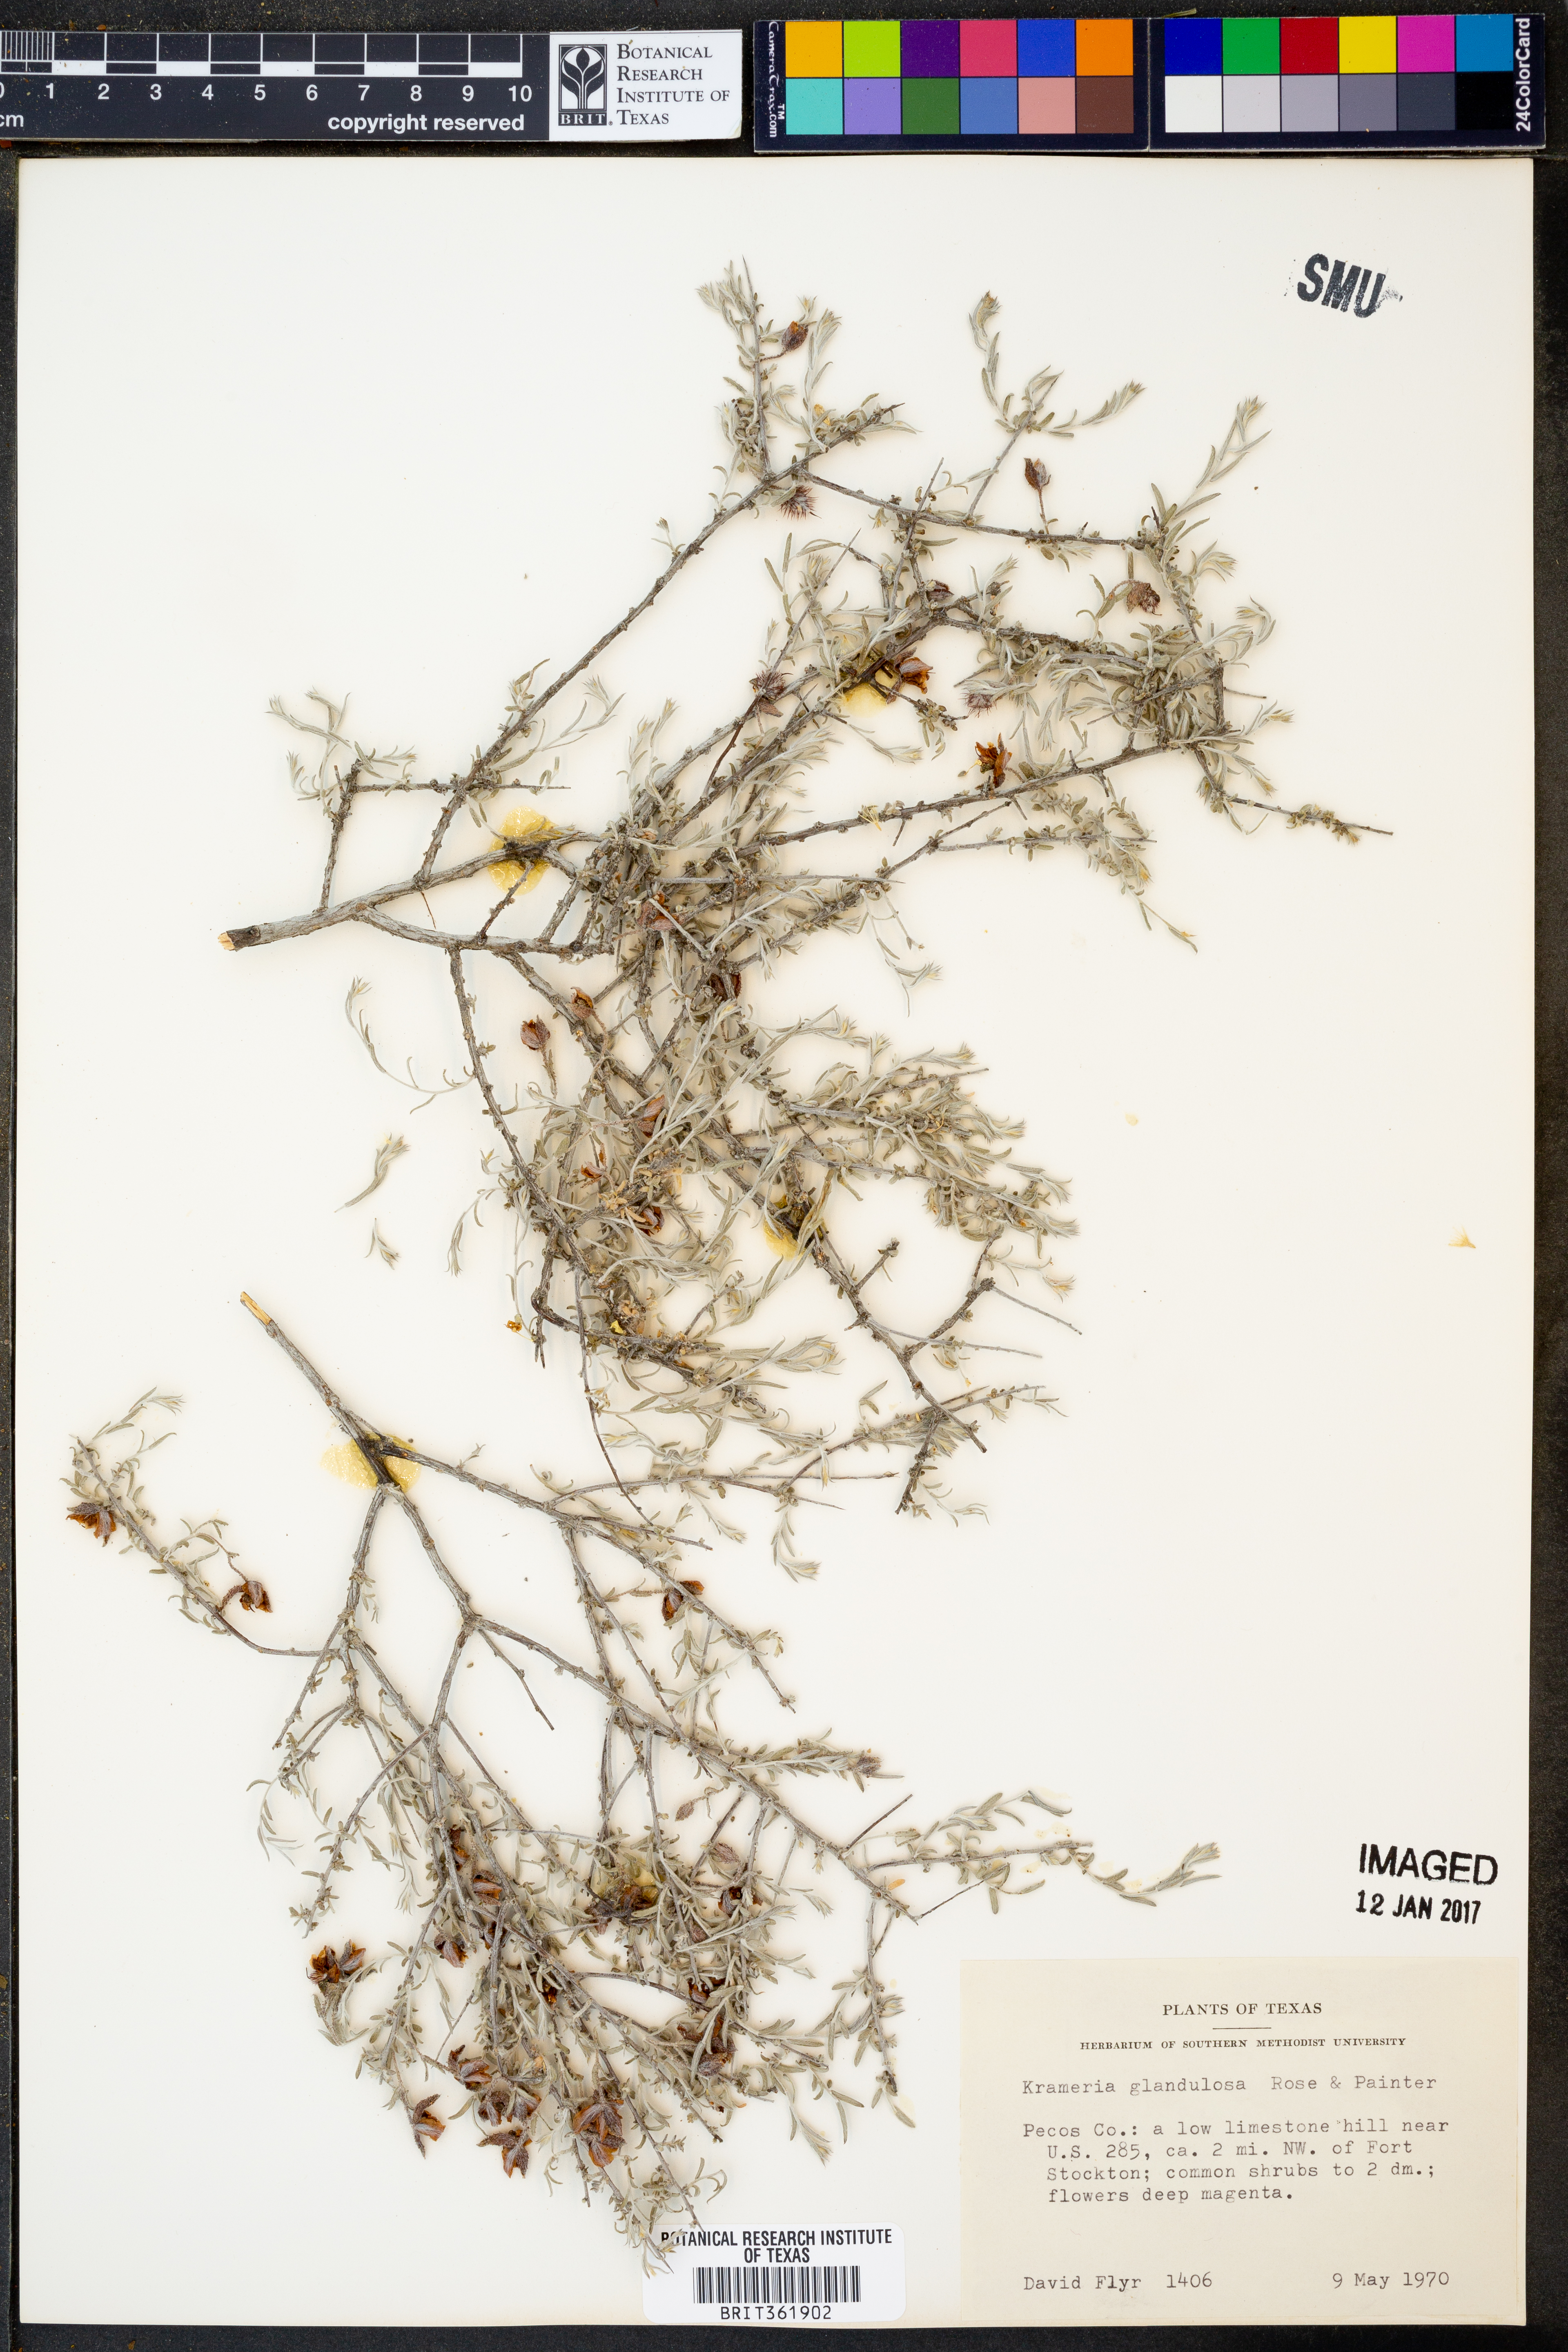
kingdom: Plantae
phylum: Tracheophyta
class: Magnoliopsida
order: Zygophyllales
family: Krameriaceae
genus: Krameria
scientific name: Krameria erecta
